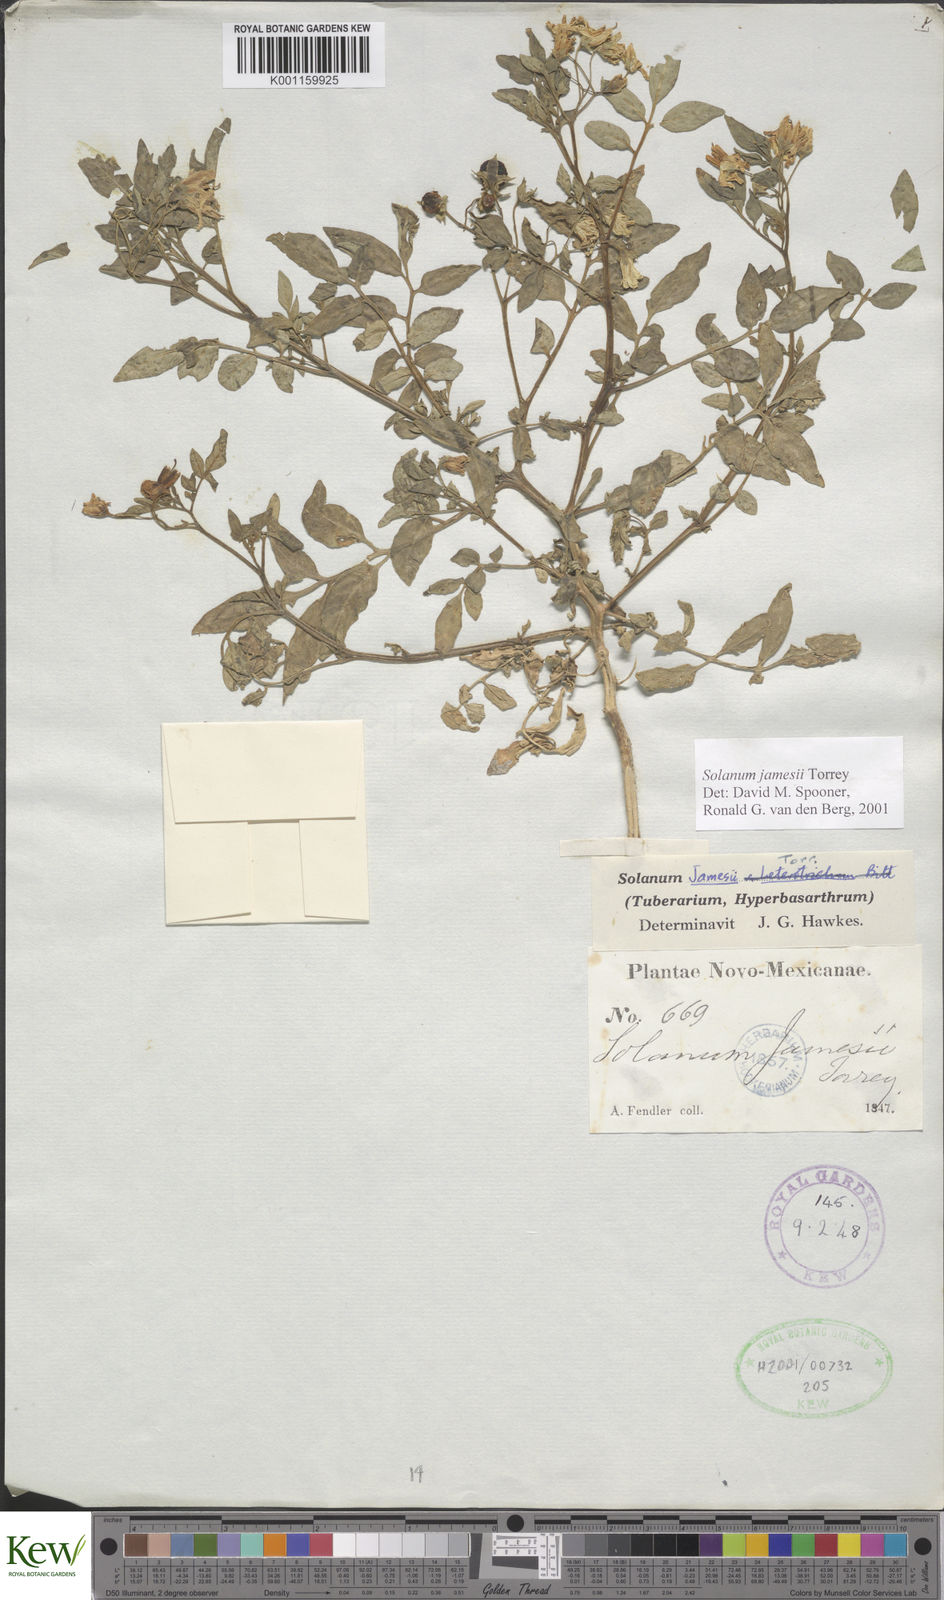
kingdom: Plantae
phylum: Tracheophyta
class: Magnoliopsida
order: Solanales
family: Solanaceae
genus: Solanum
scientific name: Solanum jamesii
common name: Wild potato
